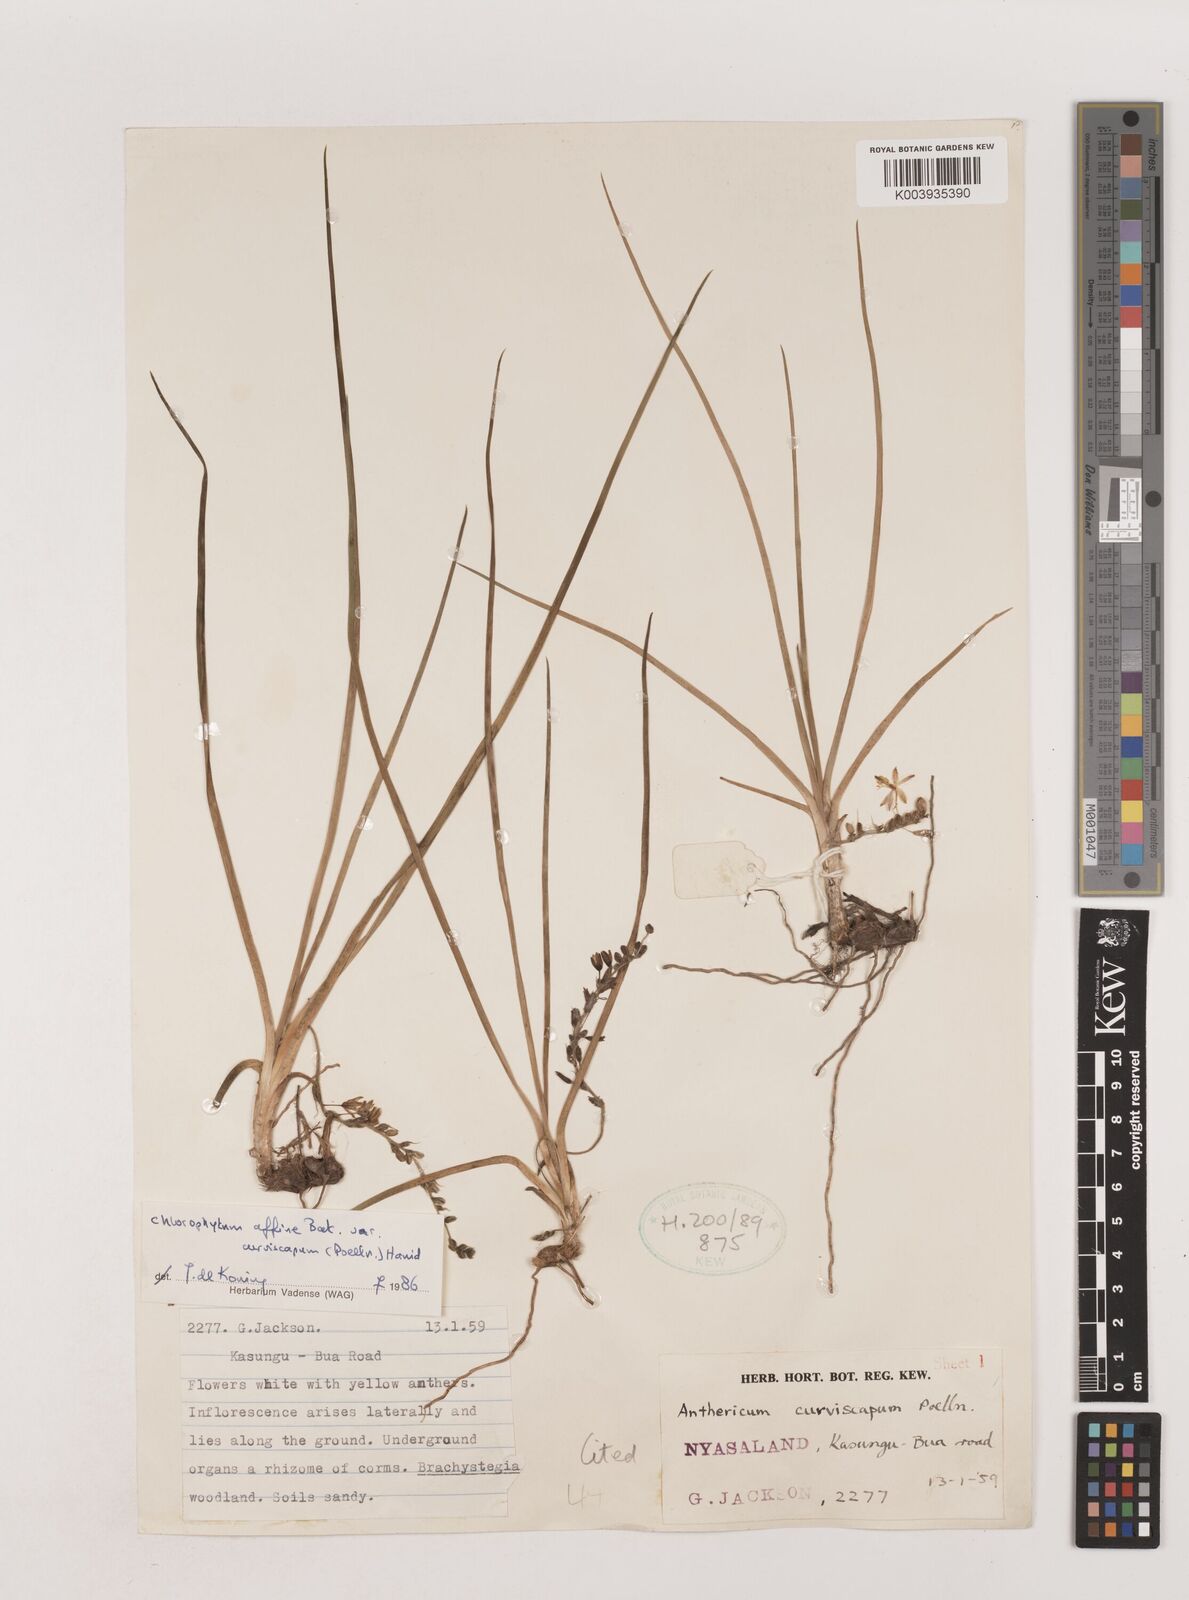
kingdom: Plantae
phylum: Tracheophyta
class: Liliopsida
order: Asparagales
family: Asparagaceae
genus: Chlorophytum
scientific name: Chlorophytum tordense
